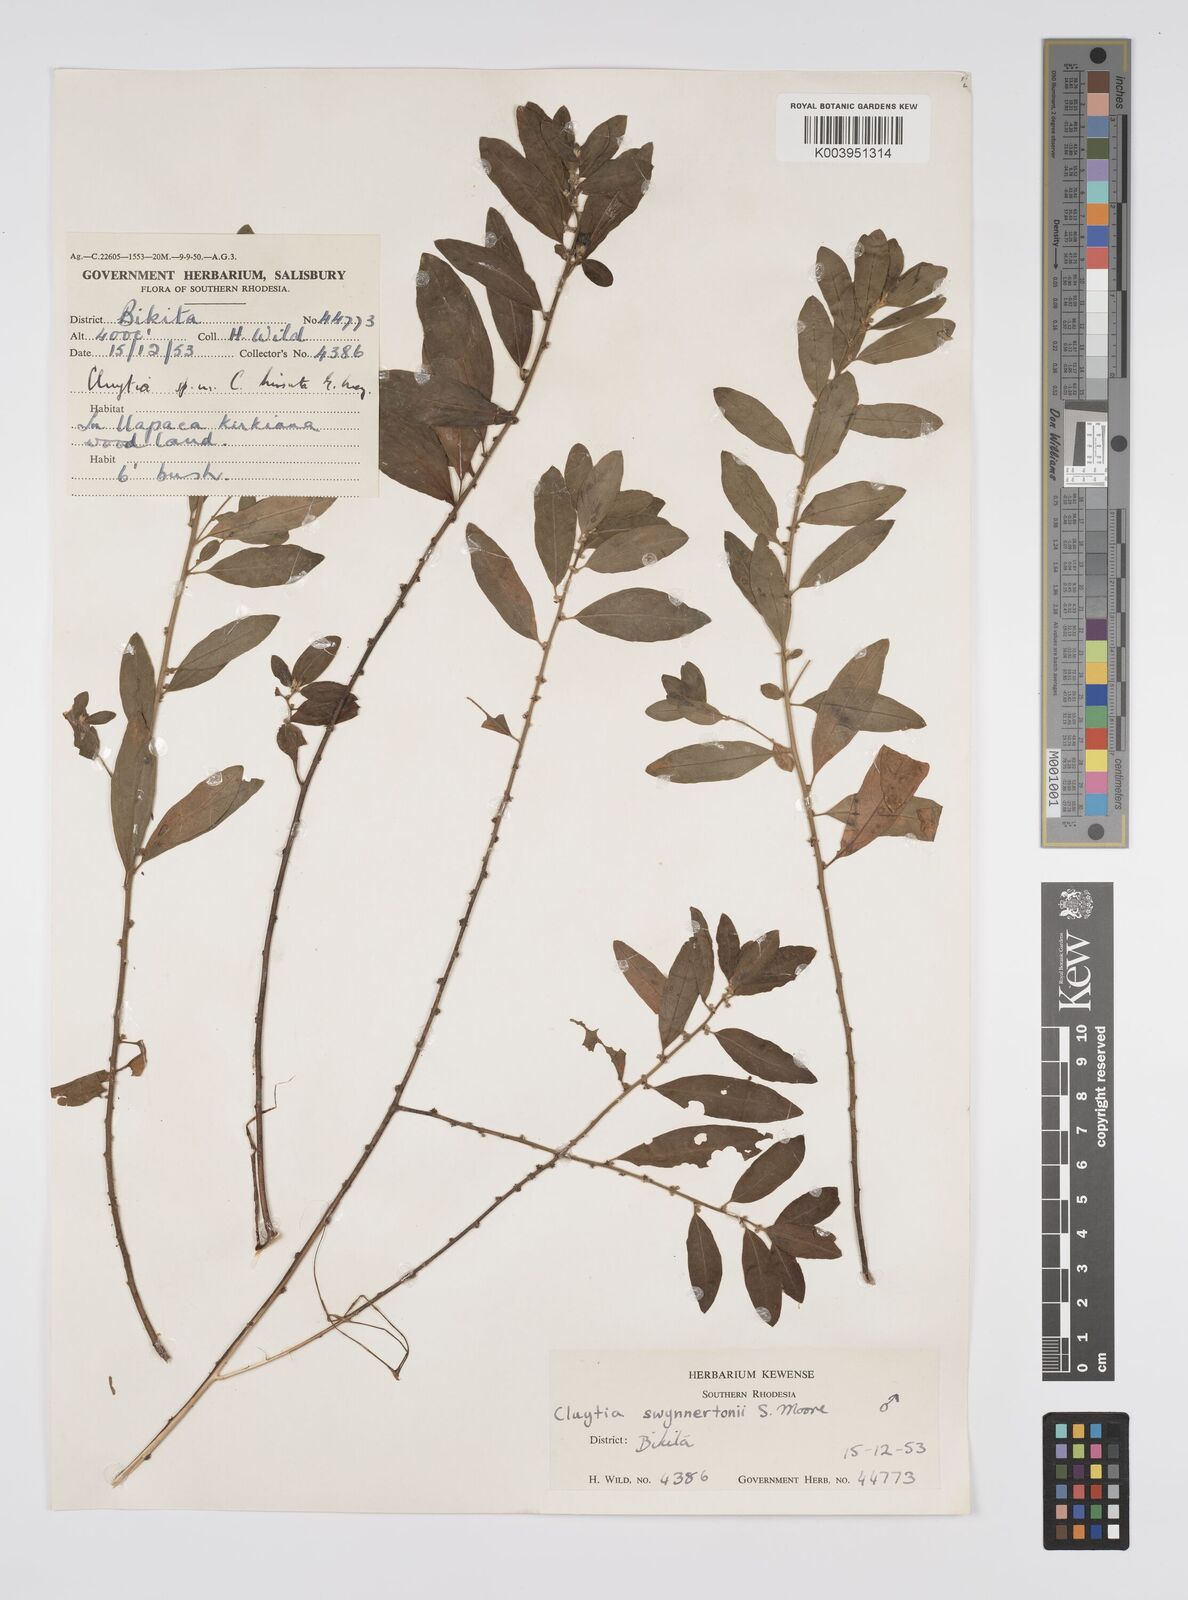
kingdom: Plantae
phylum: Tracheophyta
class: Magnoliopsida
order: Malpighiales
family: Peraceae
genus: Clutia
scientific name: Clutia swynnertonii
